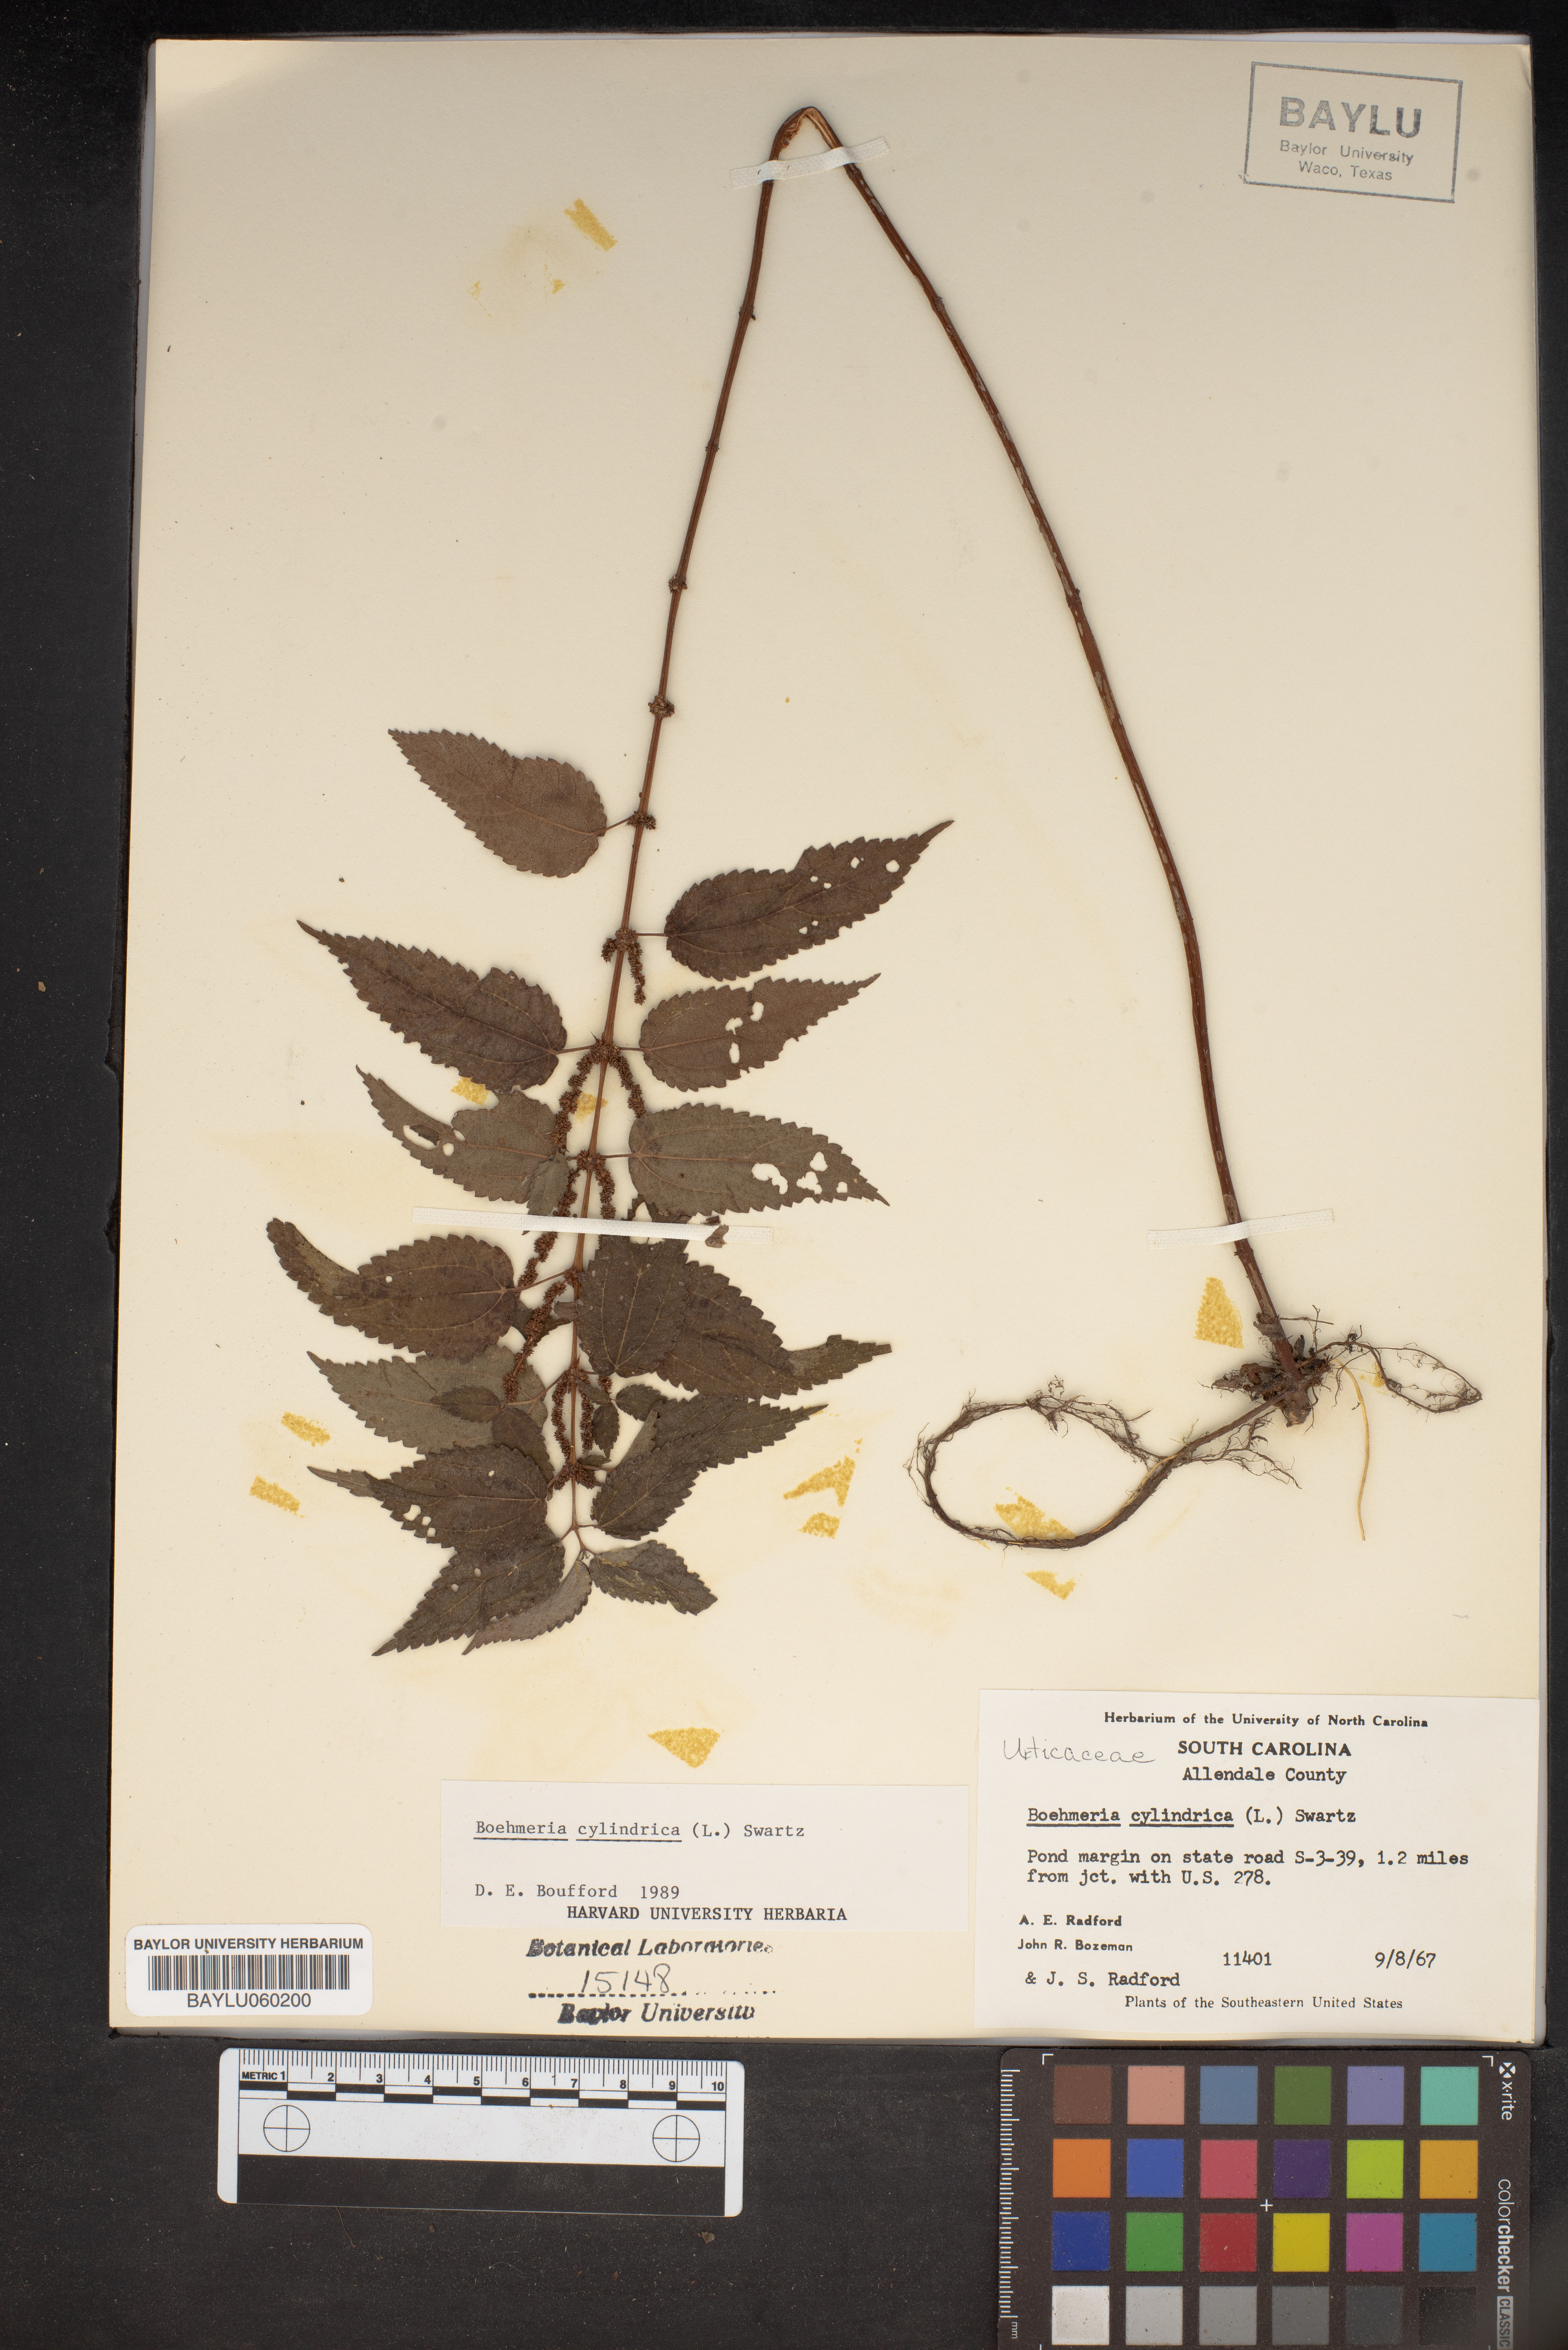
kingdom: Plantae
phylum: Tracheophyta
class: Magnoliopsida
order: Rosales
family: Urticaceae
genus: Boehmeria
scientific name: Boehmeria cylindrica
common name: Bog-hemp
